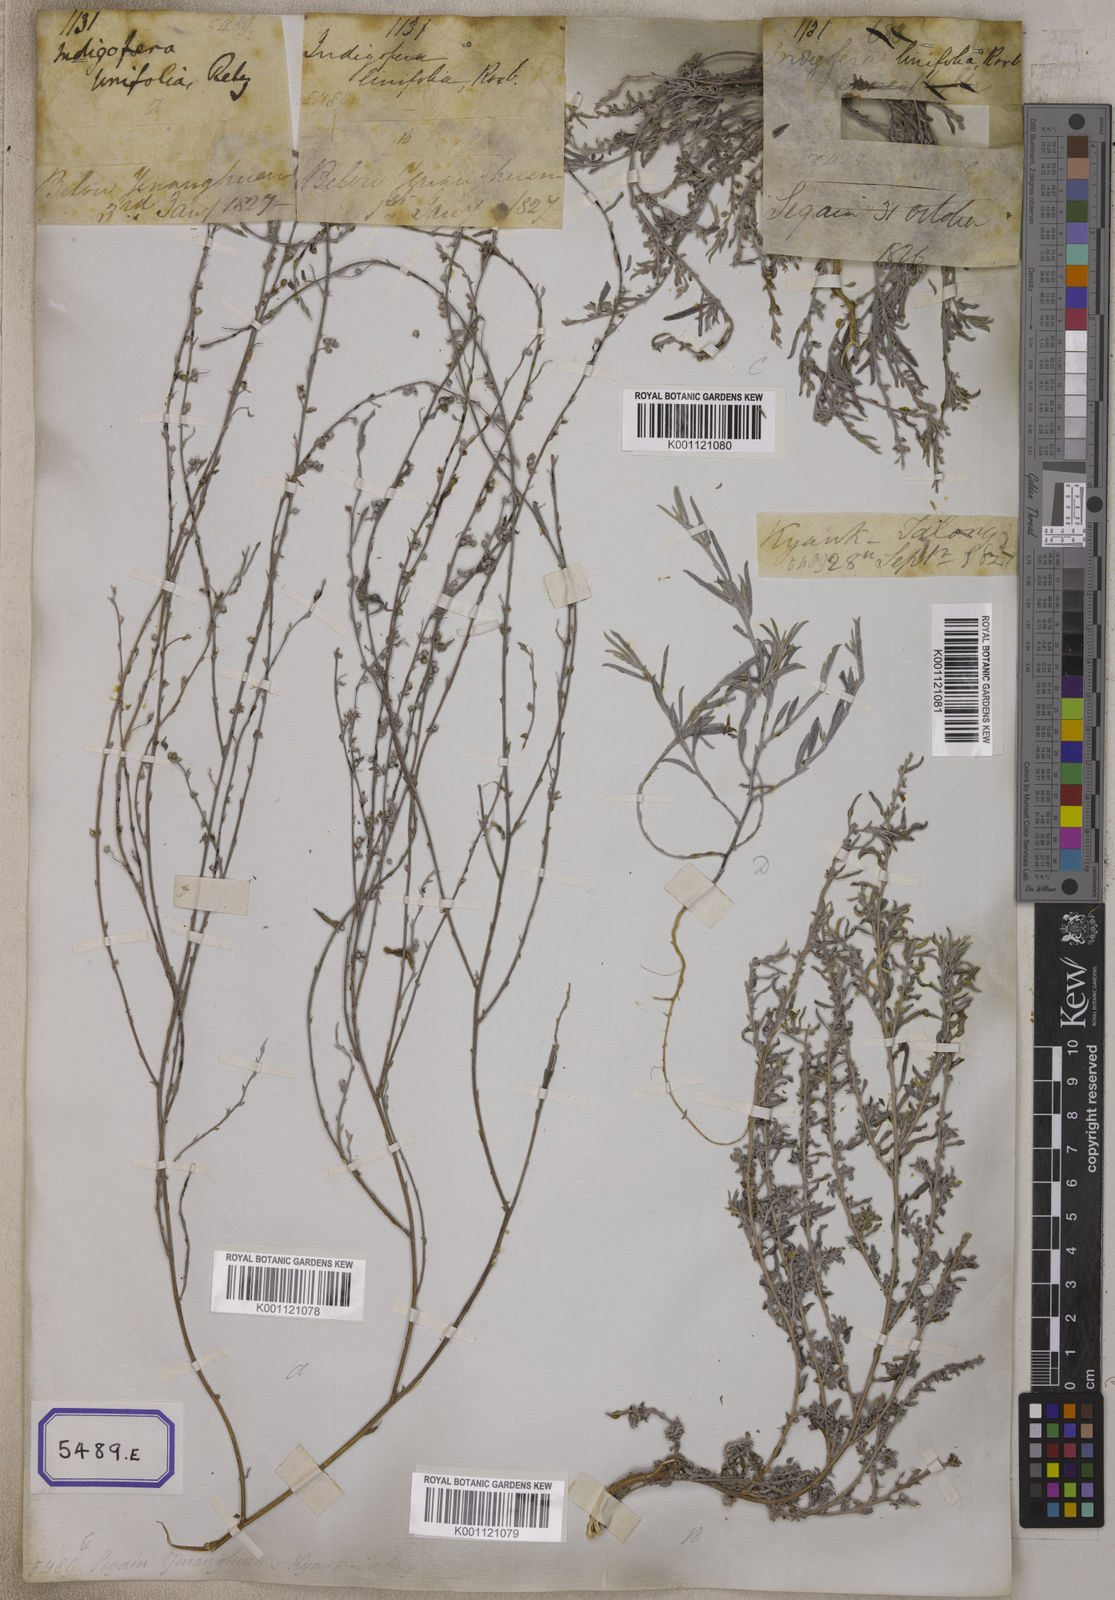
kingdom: Plantae
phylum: Tracheophyta
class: Magnoliopsida
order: Fabales
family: Fabaceae
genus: Indigofera
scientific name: Indigofera linifolia
